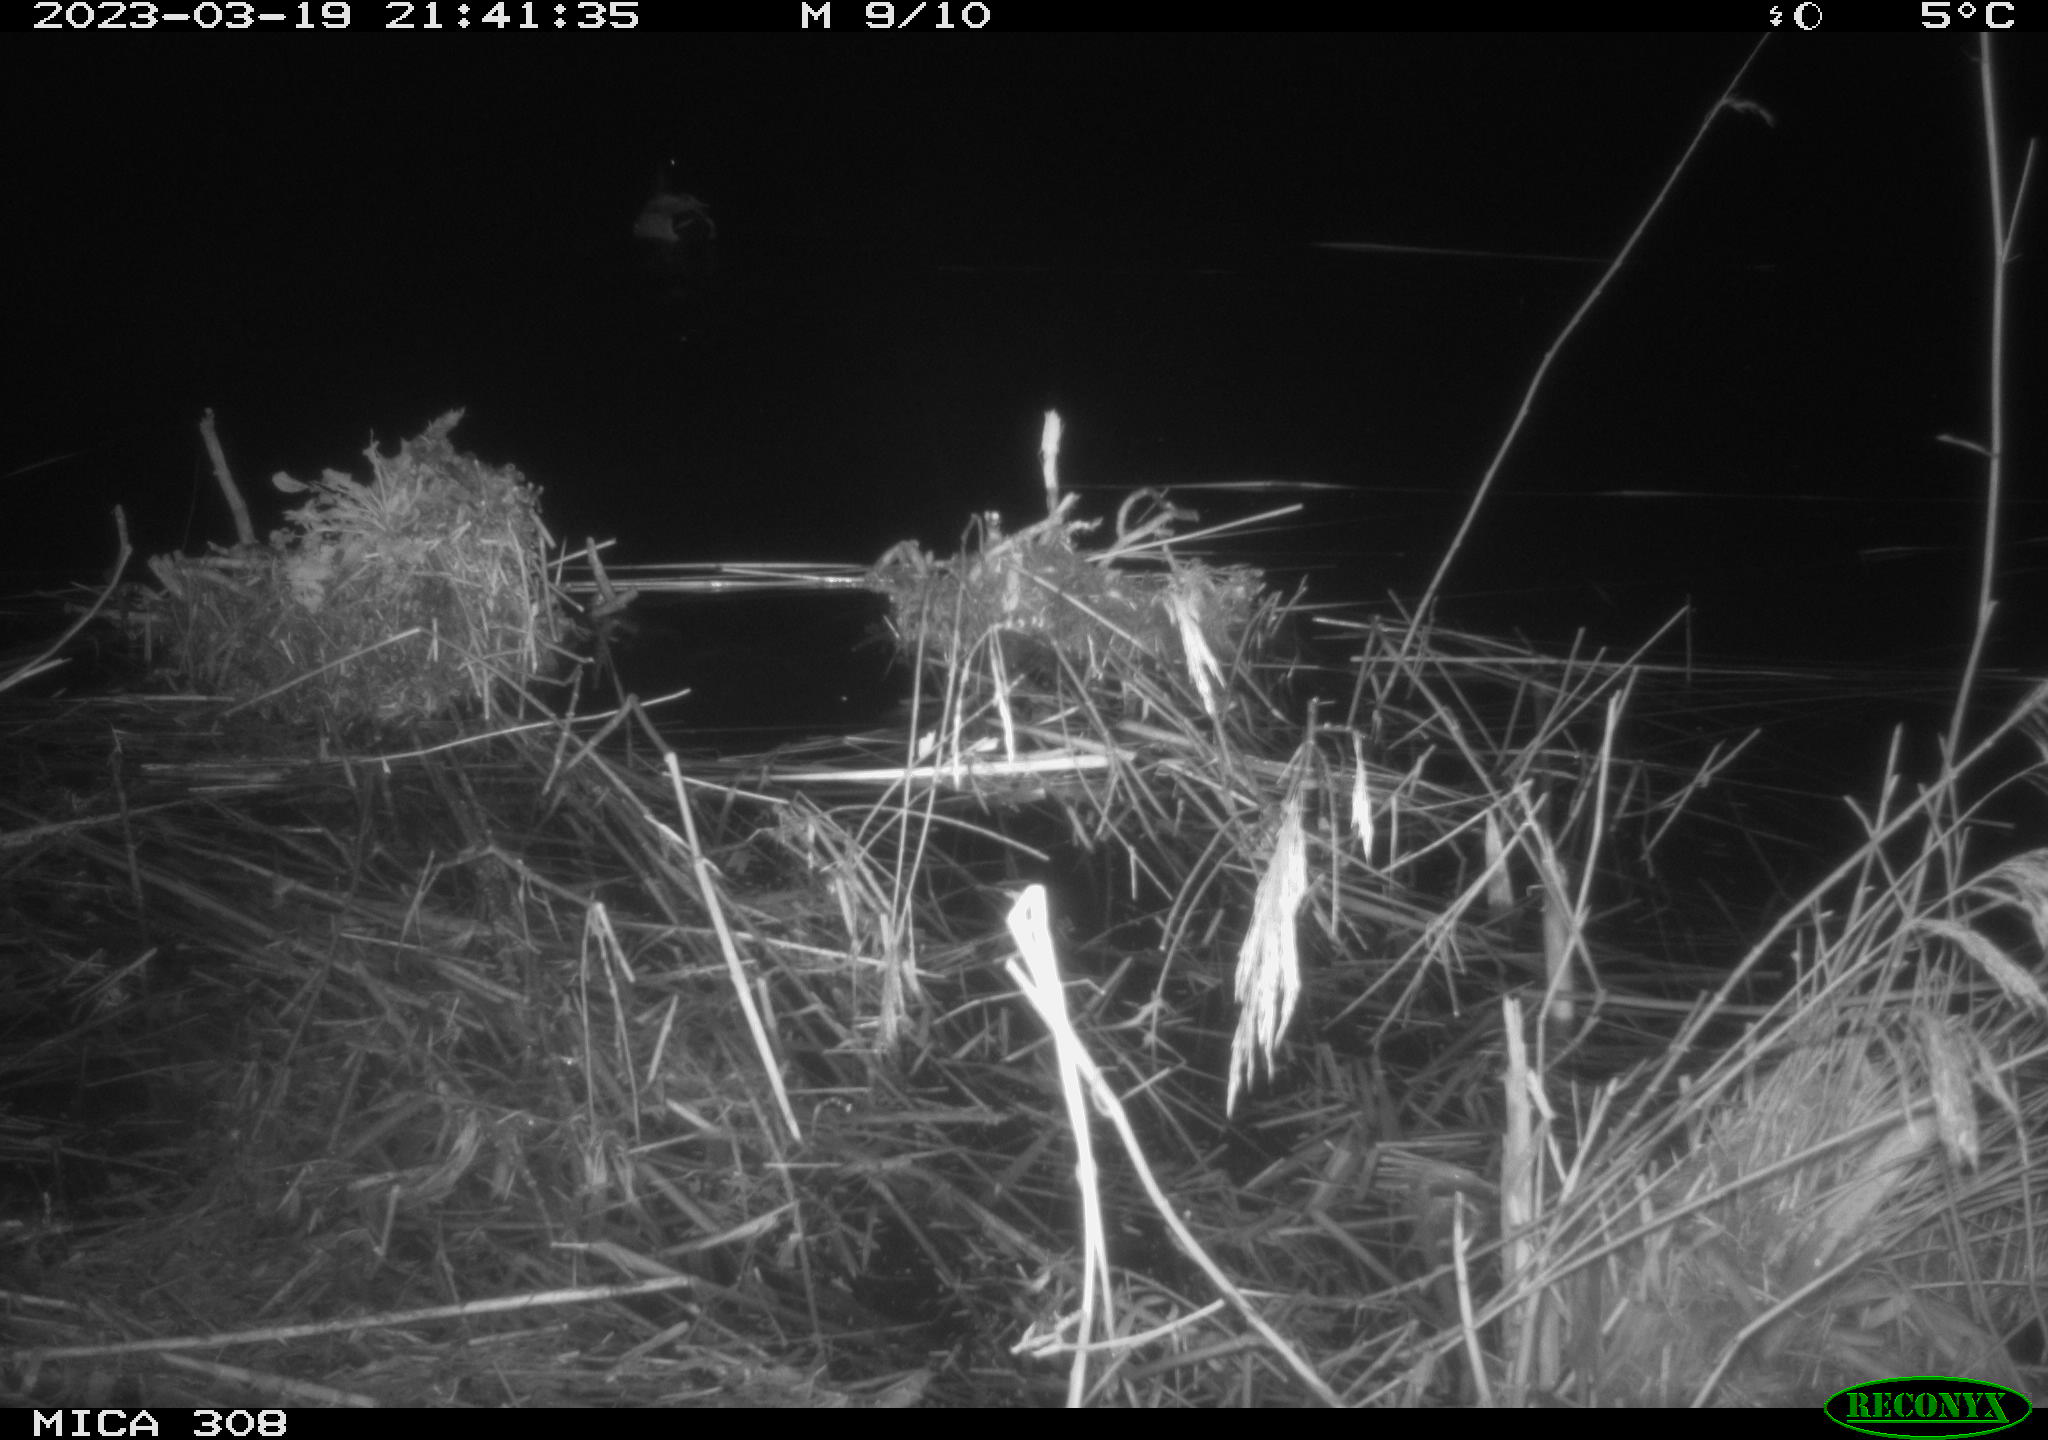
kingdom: Animalia
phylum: Chordata
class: Aves
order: Anseriformes
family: Anatidae
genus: Anas
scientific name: Anas
